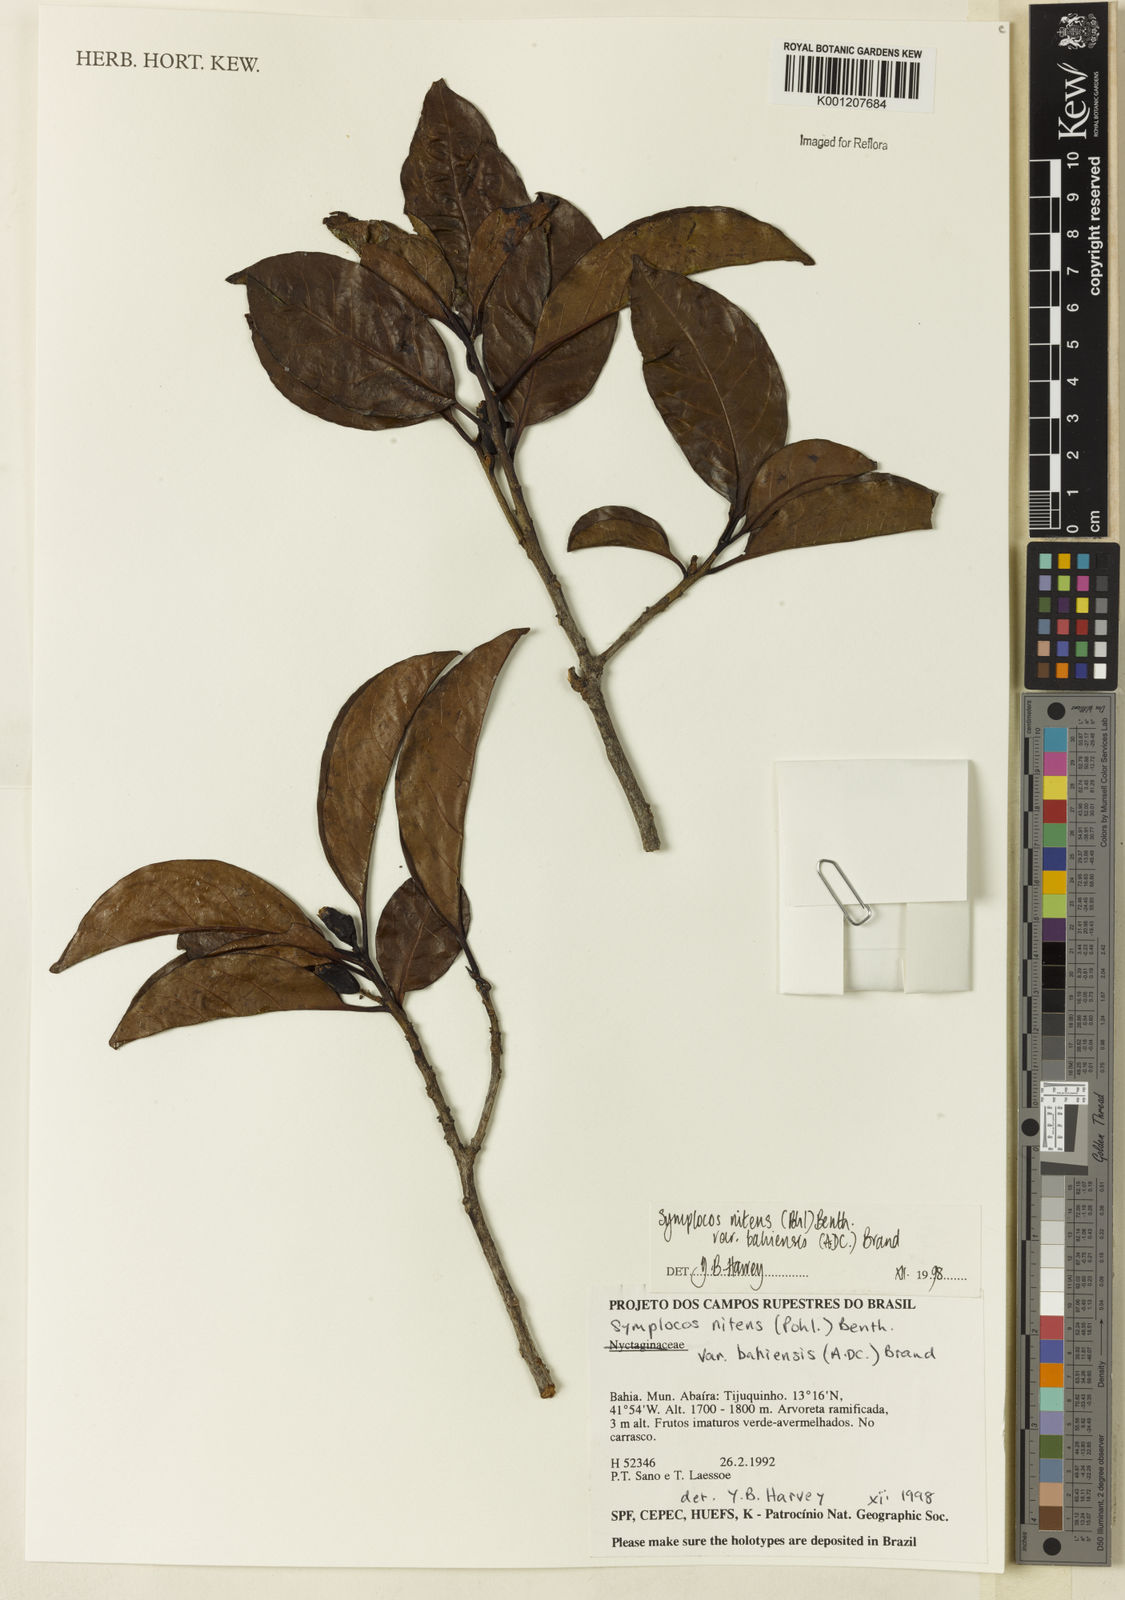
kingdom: Plantae
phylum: Tracheophyta
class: Magnoliopsida
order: Ericales
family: Symplocaceae
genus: Symplocos
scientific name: Symplocos nitens
